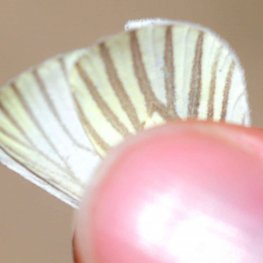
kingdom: Animalia
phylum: Arthropoda
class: Insecta
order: Lepidoptera
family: Pieridae
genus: Pieris
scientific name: Pieris oleracea
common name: Mustard White
